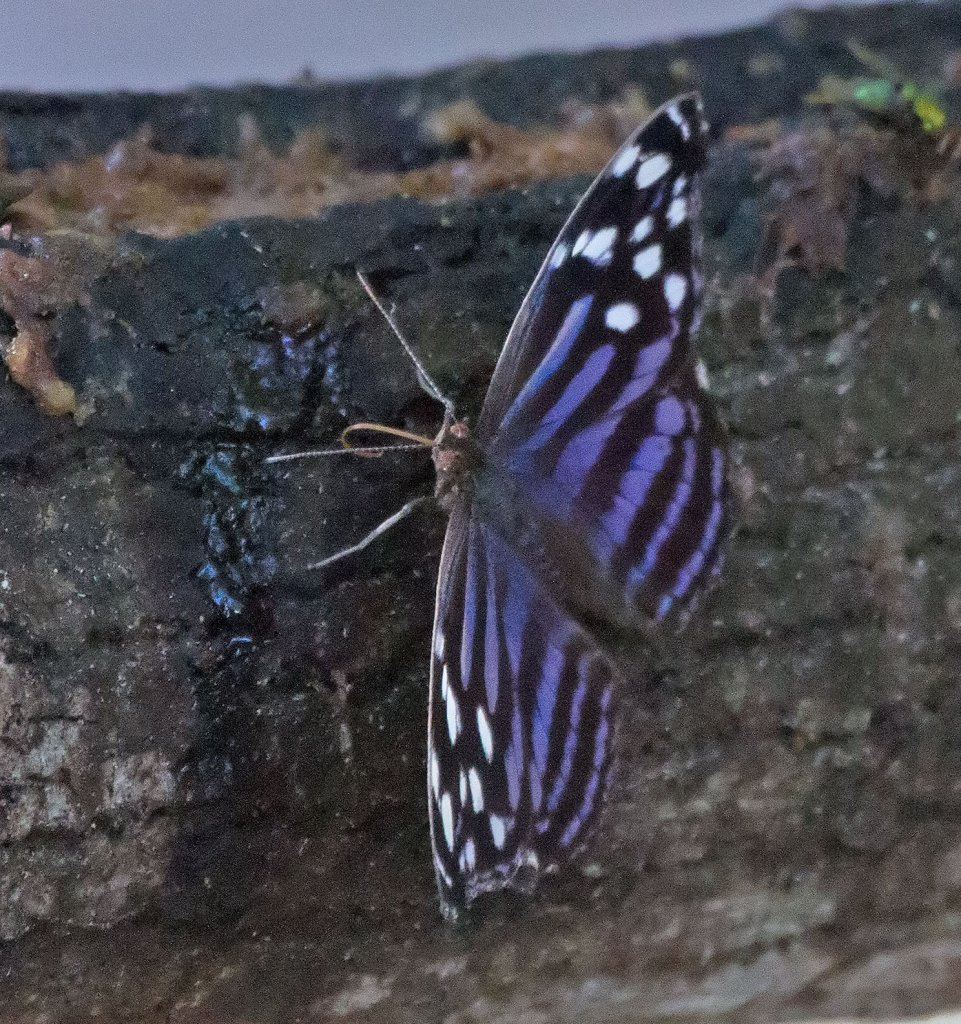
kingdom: Animalia
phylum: Arthropoda
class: Insecta
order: Lepidoptera
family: Nymphalidae
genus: Myscelia
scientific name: Myscelia ethusa
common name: Mexican Bluewing
